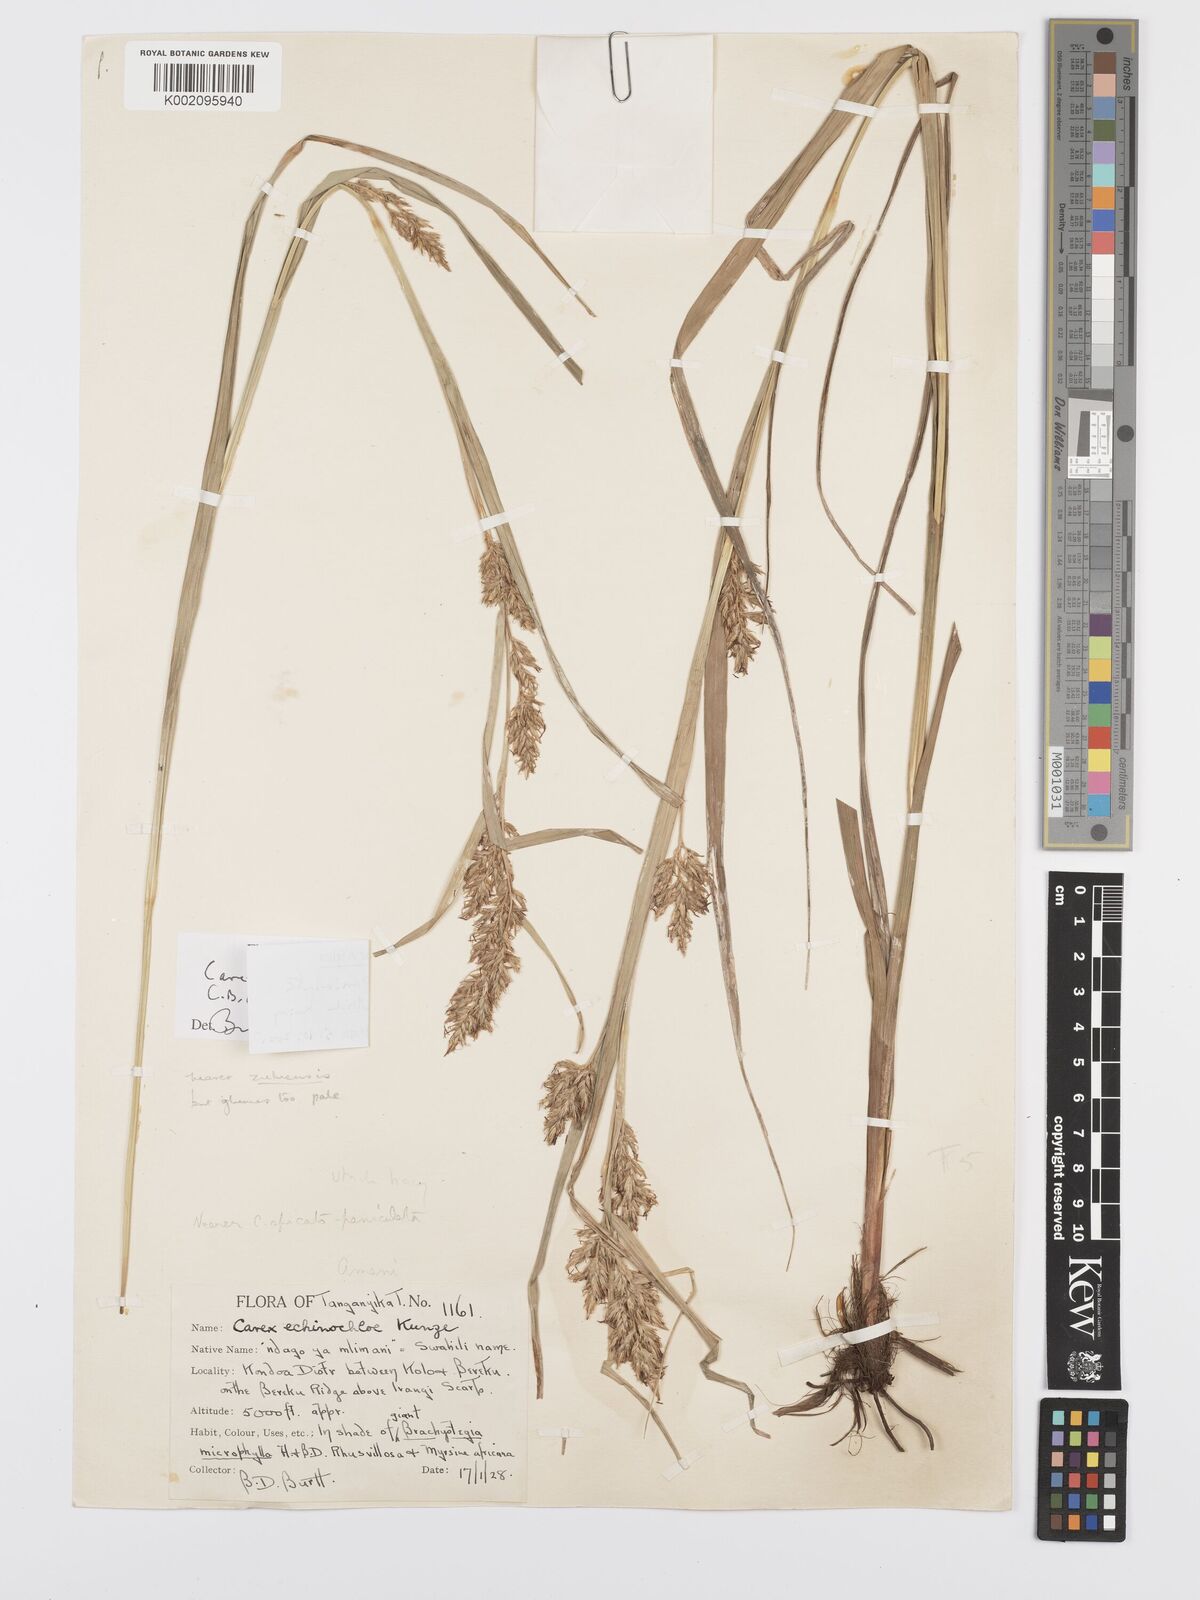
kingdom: Plantae
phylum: Tracheophyta
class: Liliopsida
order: Poales
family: Cyperaceae
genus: Carex
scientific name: Carex spicatopaniculata
